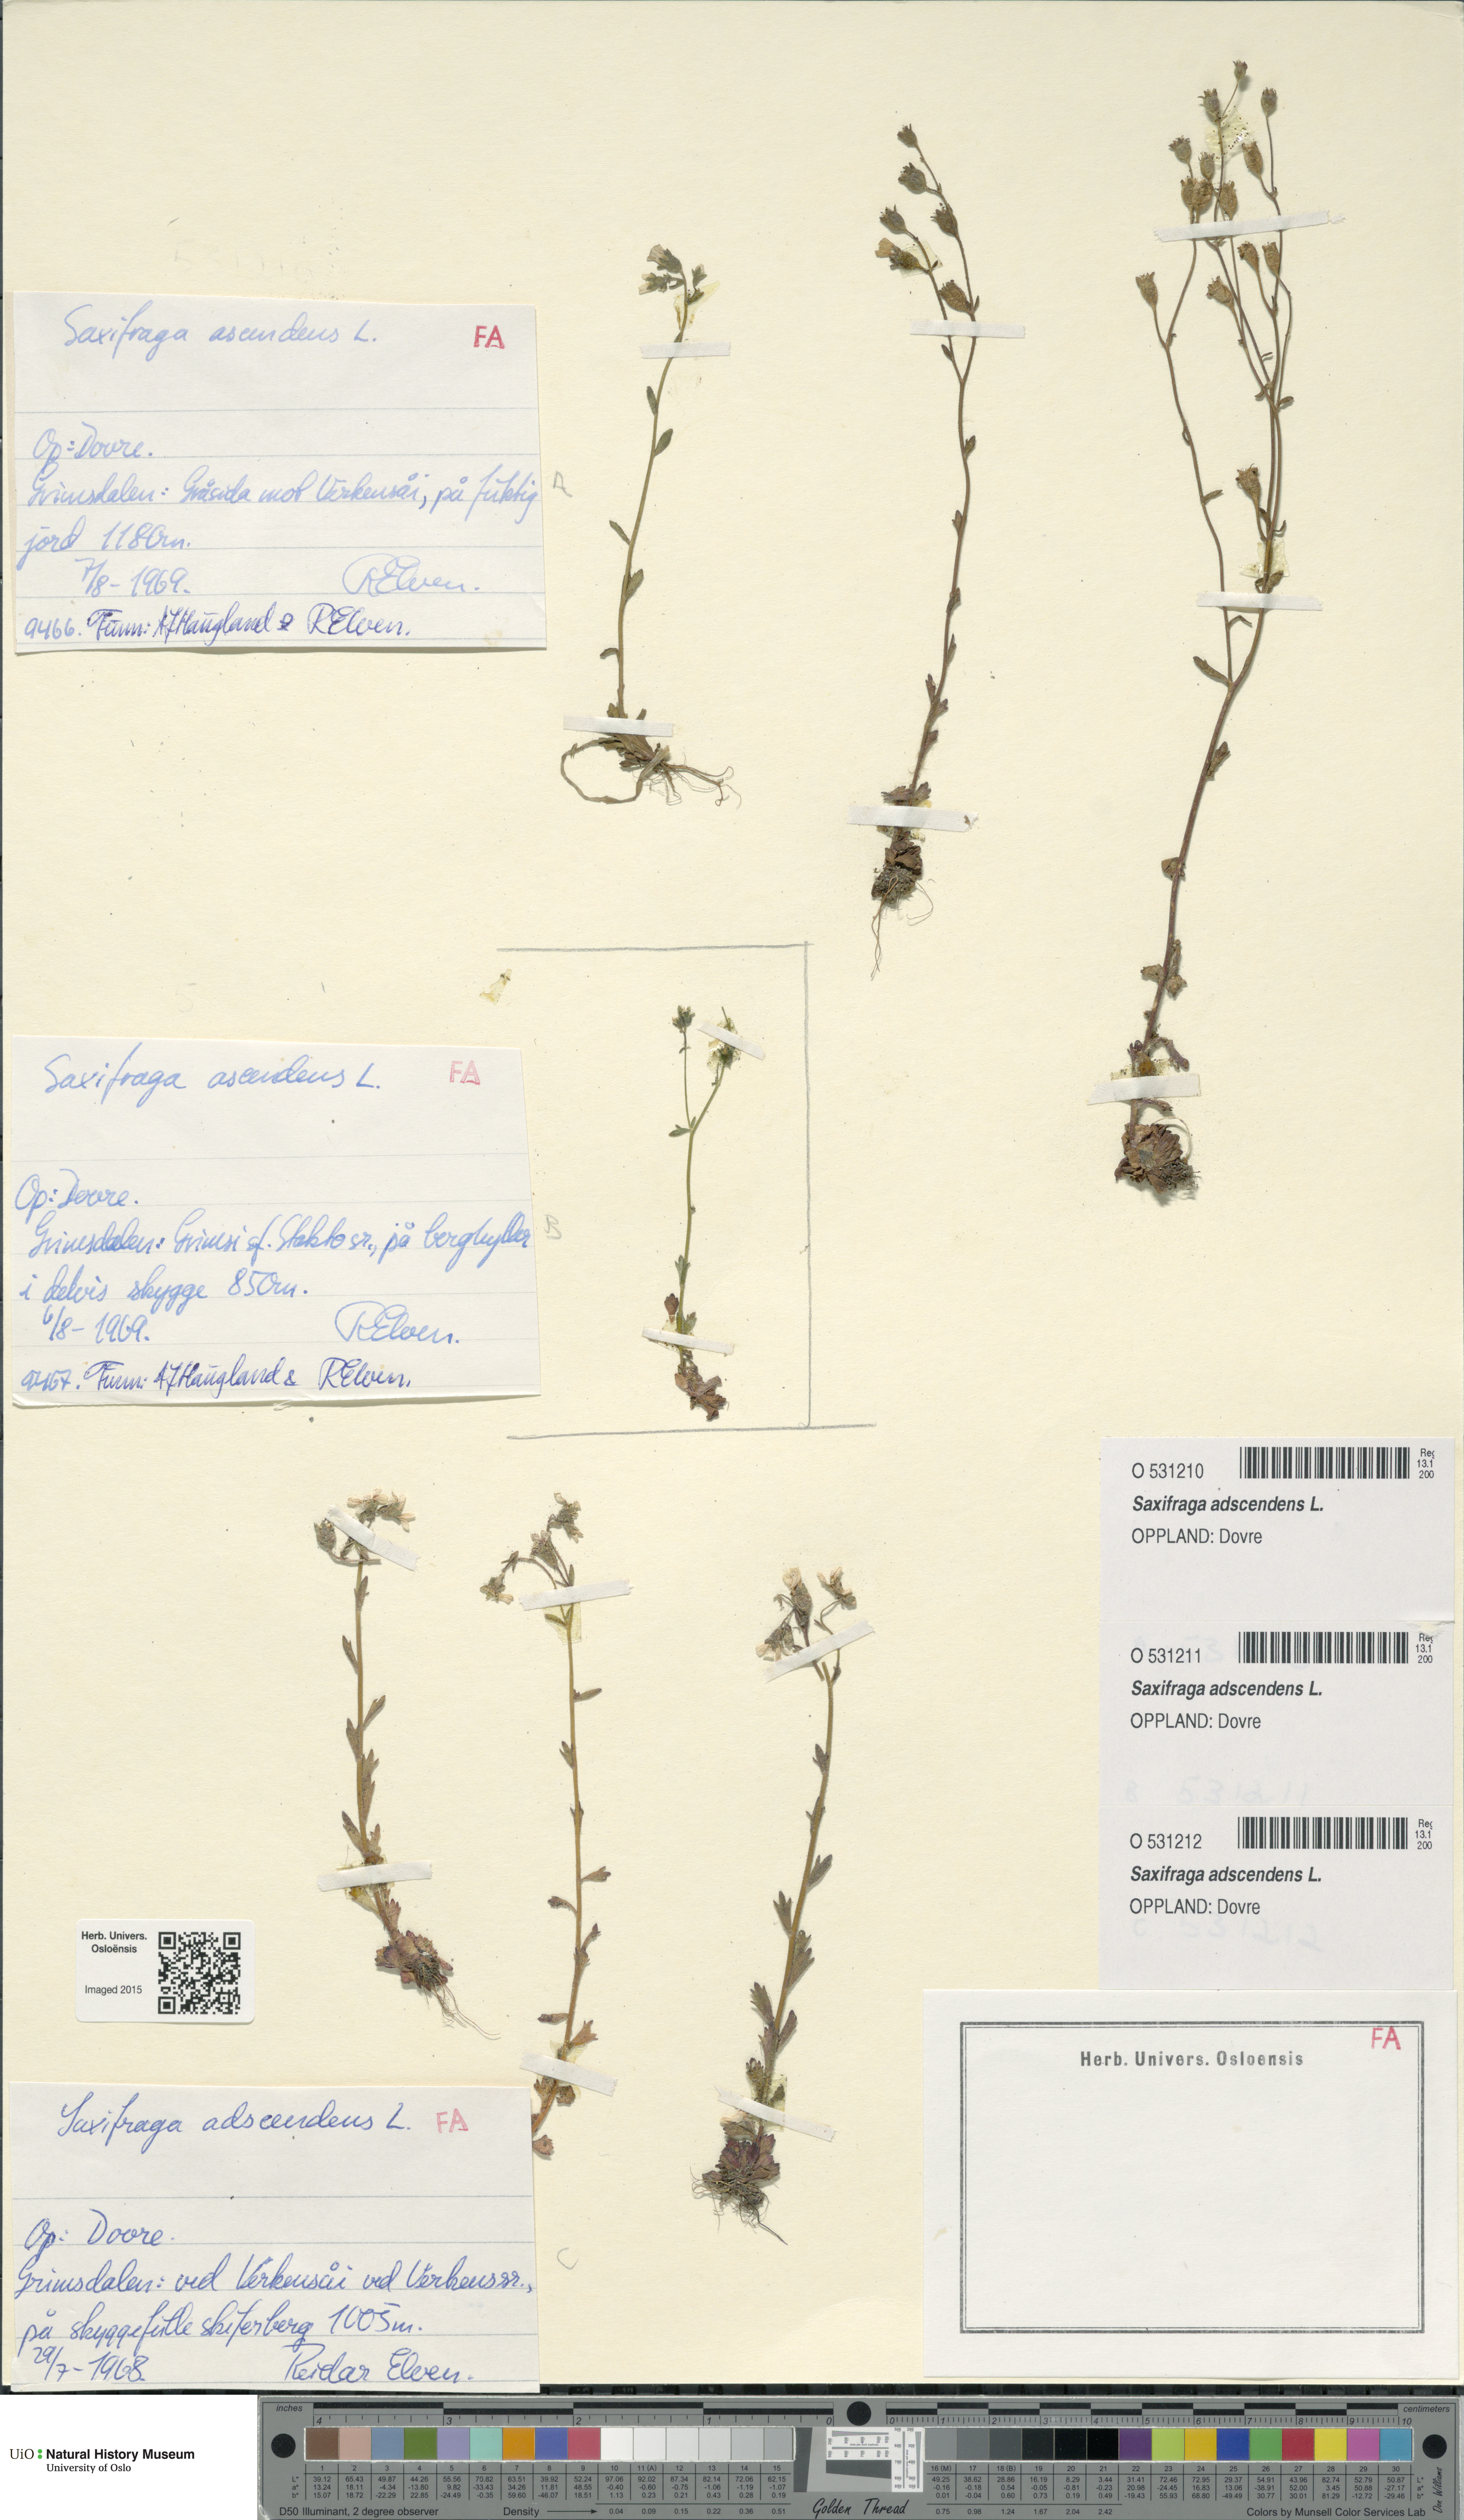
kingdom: Plantae
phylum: Tracheophyta
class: Magnoliopsida
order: Saxifragales
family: Saxifragaceae
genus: Saxifraga
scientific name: Saxifraga adscendens
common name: Ascending saxifrage
